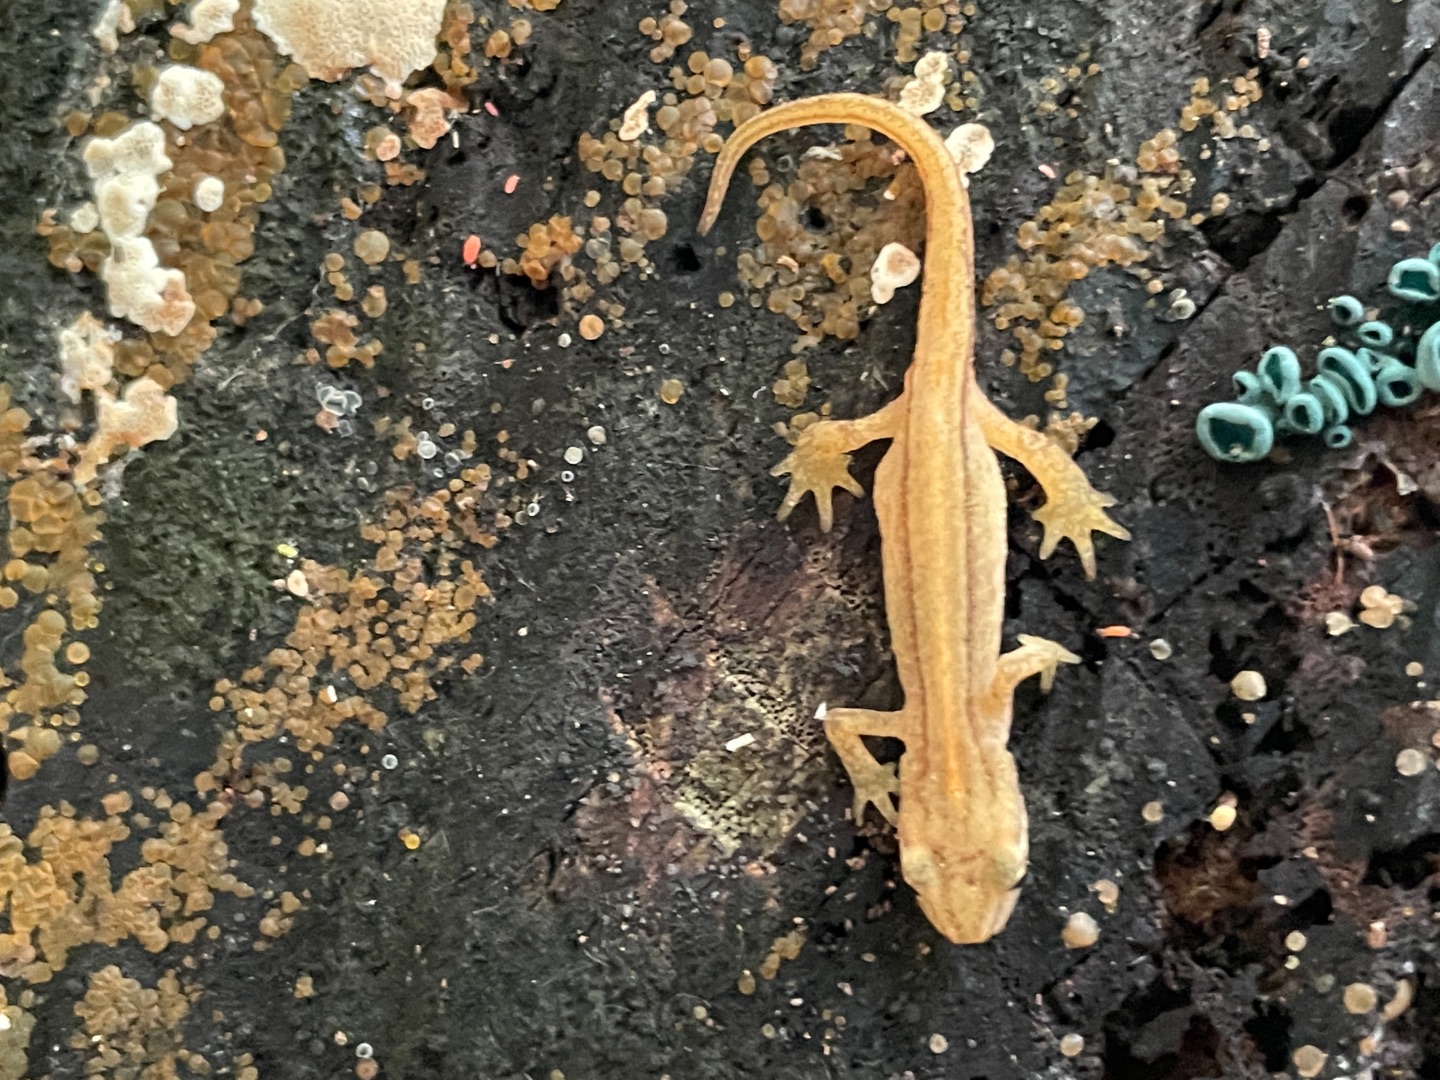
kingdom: Animalia
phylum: Chordata
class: Amphibia
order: Caudata
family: Salamandridae
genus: Lissotriton
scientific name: Lissotriton vulgaris
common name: Lille vandsalamander
